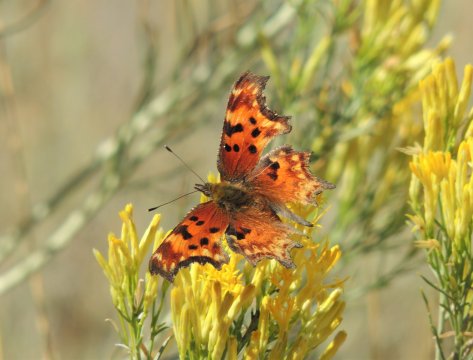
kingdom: Animalia
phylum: Arthropoda
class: Insecta
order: Lepidoptera
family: Nymphalidae
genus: Polygonia
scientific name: Polygonia gracilis
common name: Hoary Comma
